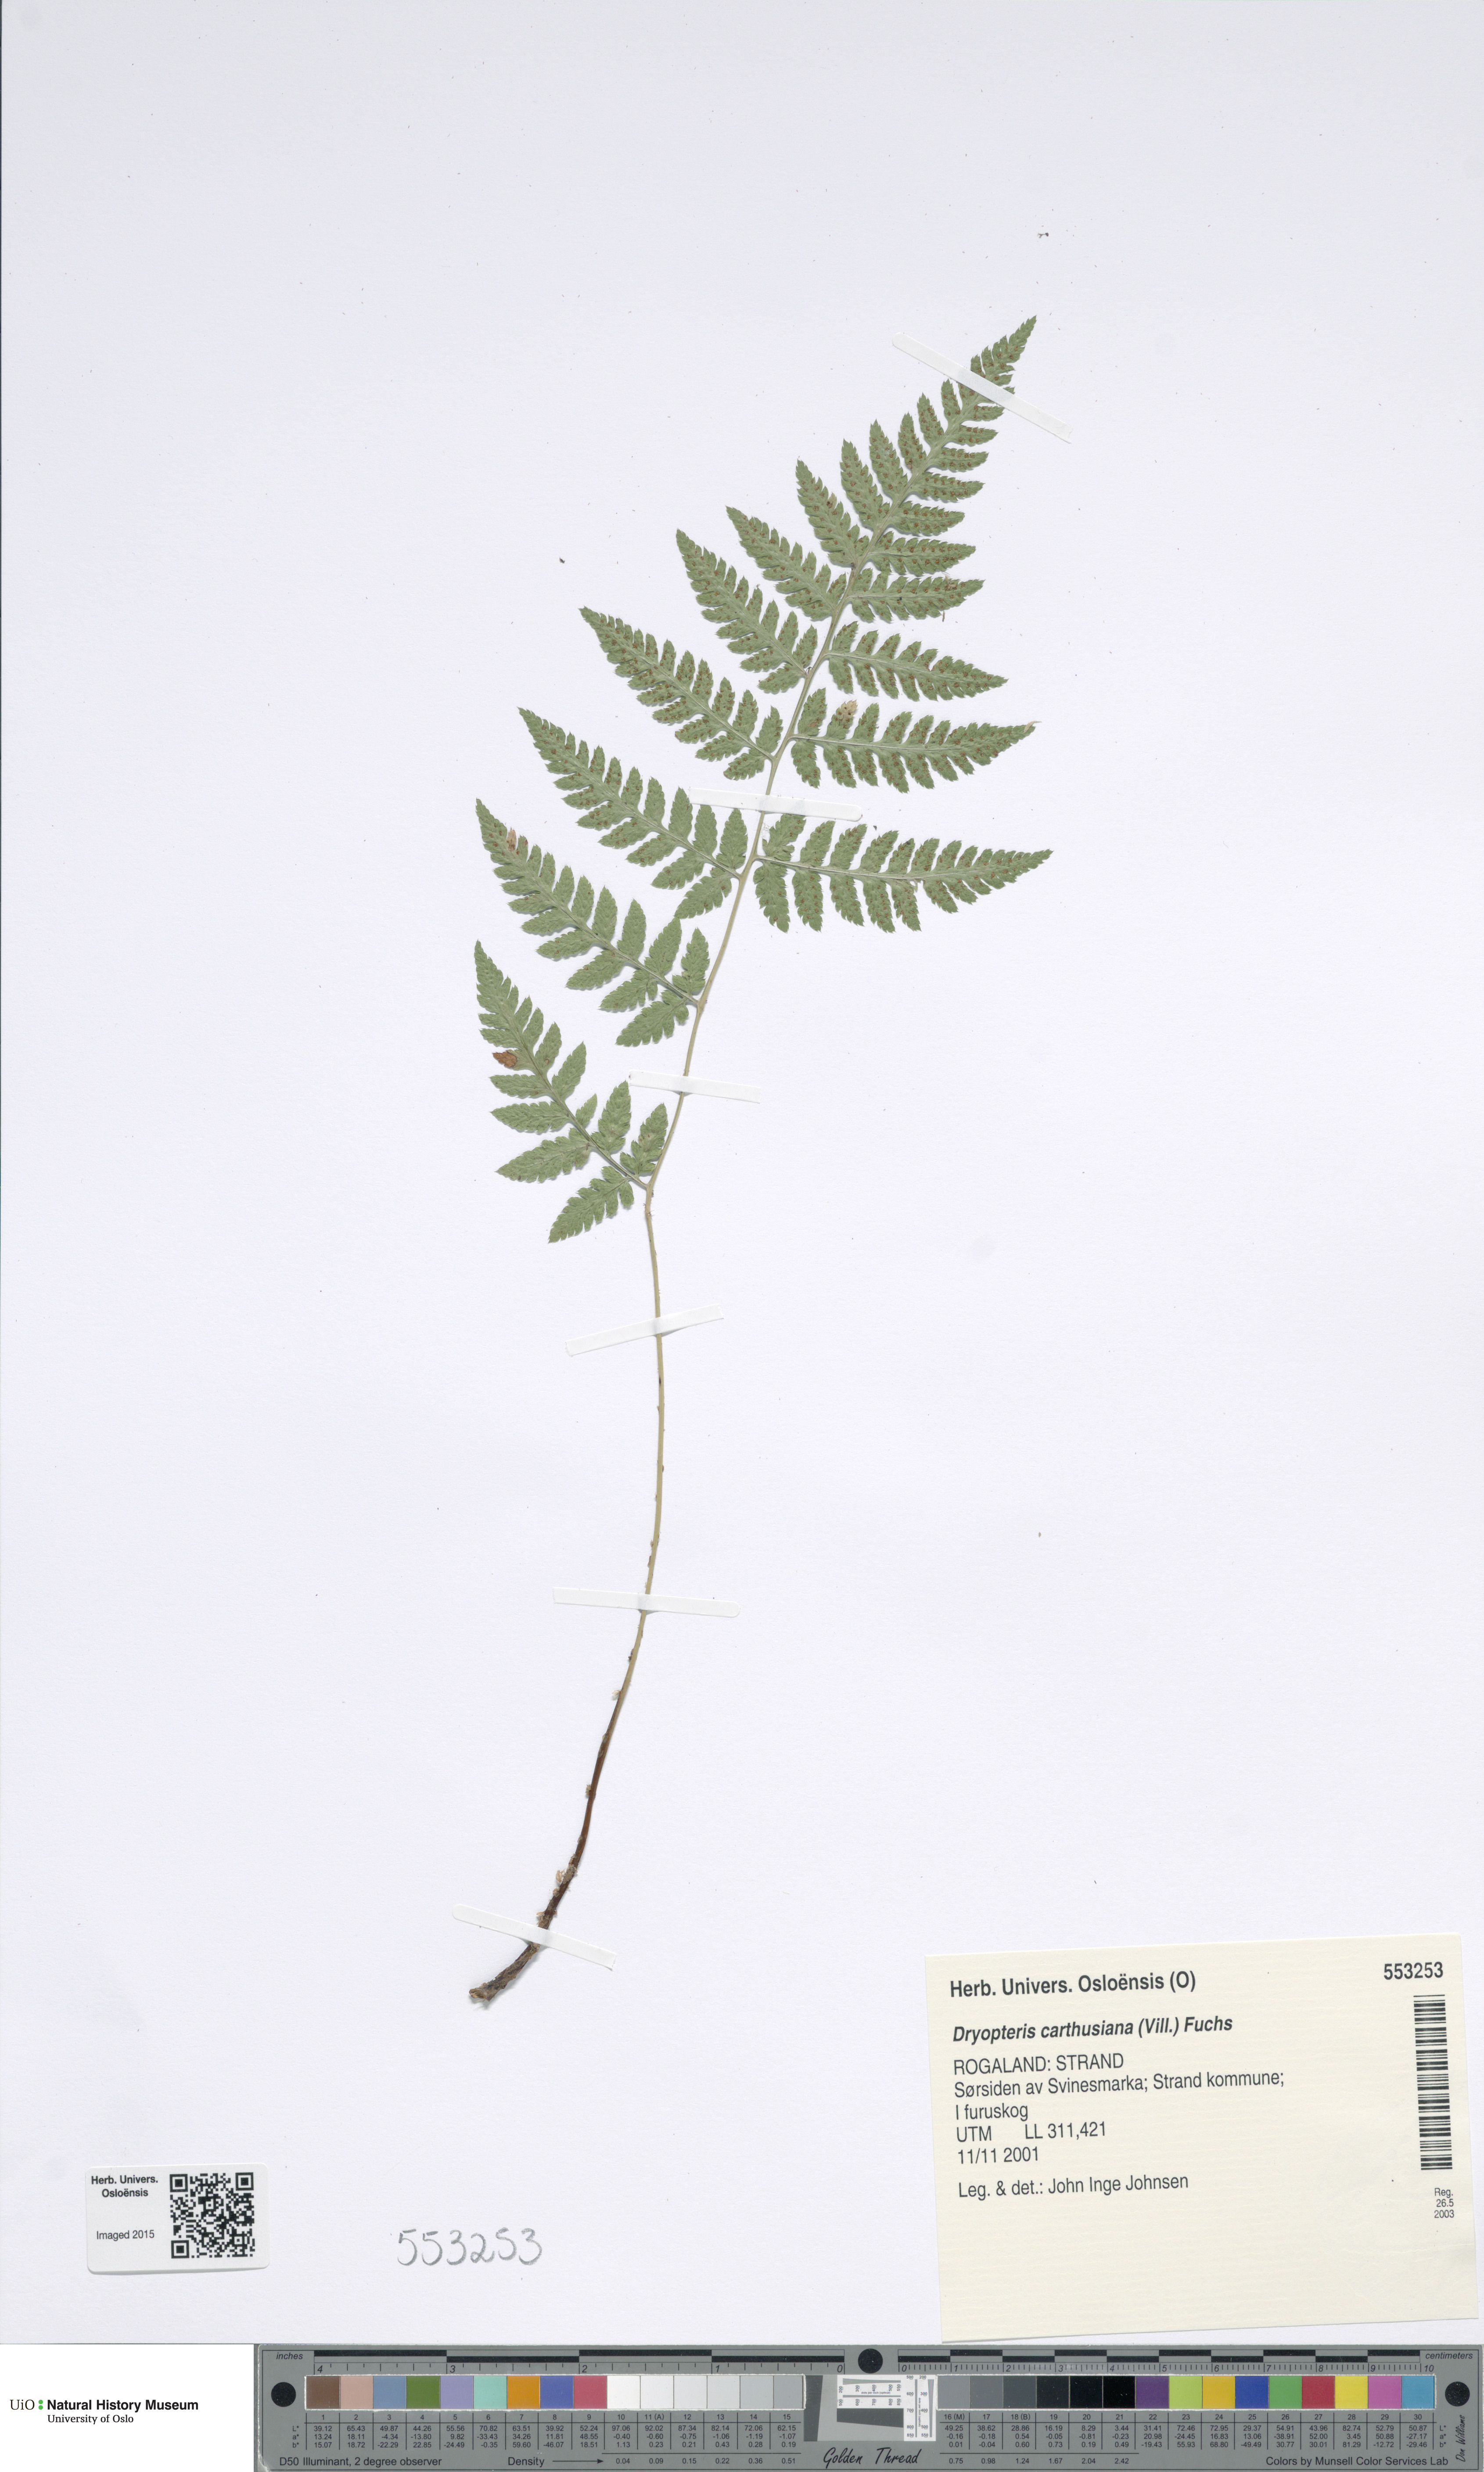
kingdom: Plantae
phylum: Tracheophyta
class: Polypodiopsida
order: Polypodiales
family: Dryopteridaceae
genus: Dryopteris
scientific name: Dryopteris carthusiana
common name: Narrow buckler-fern
